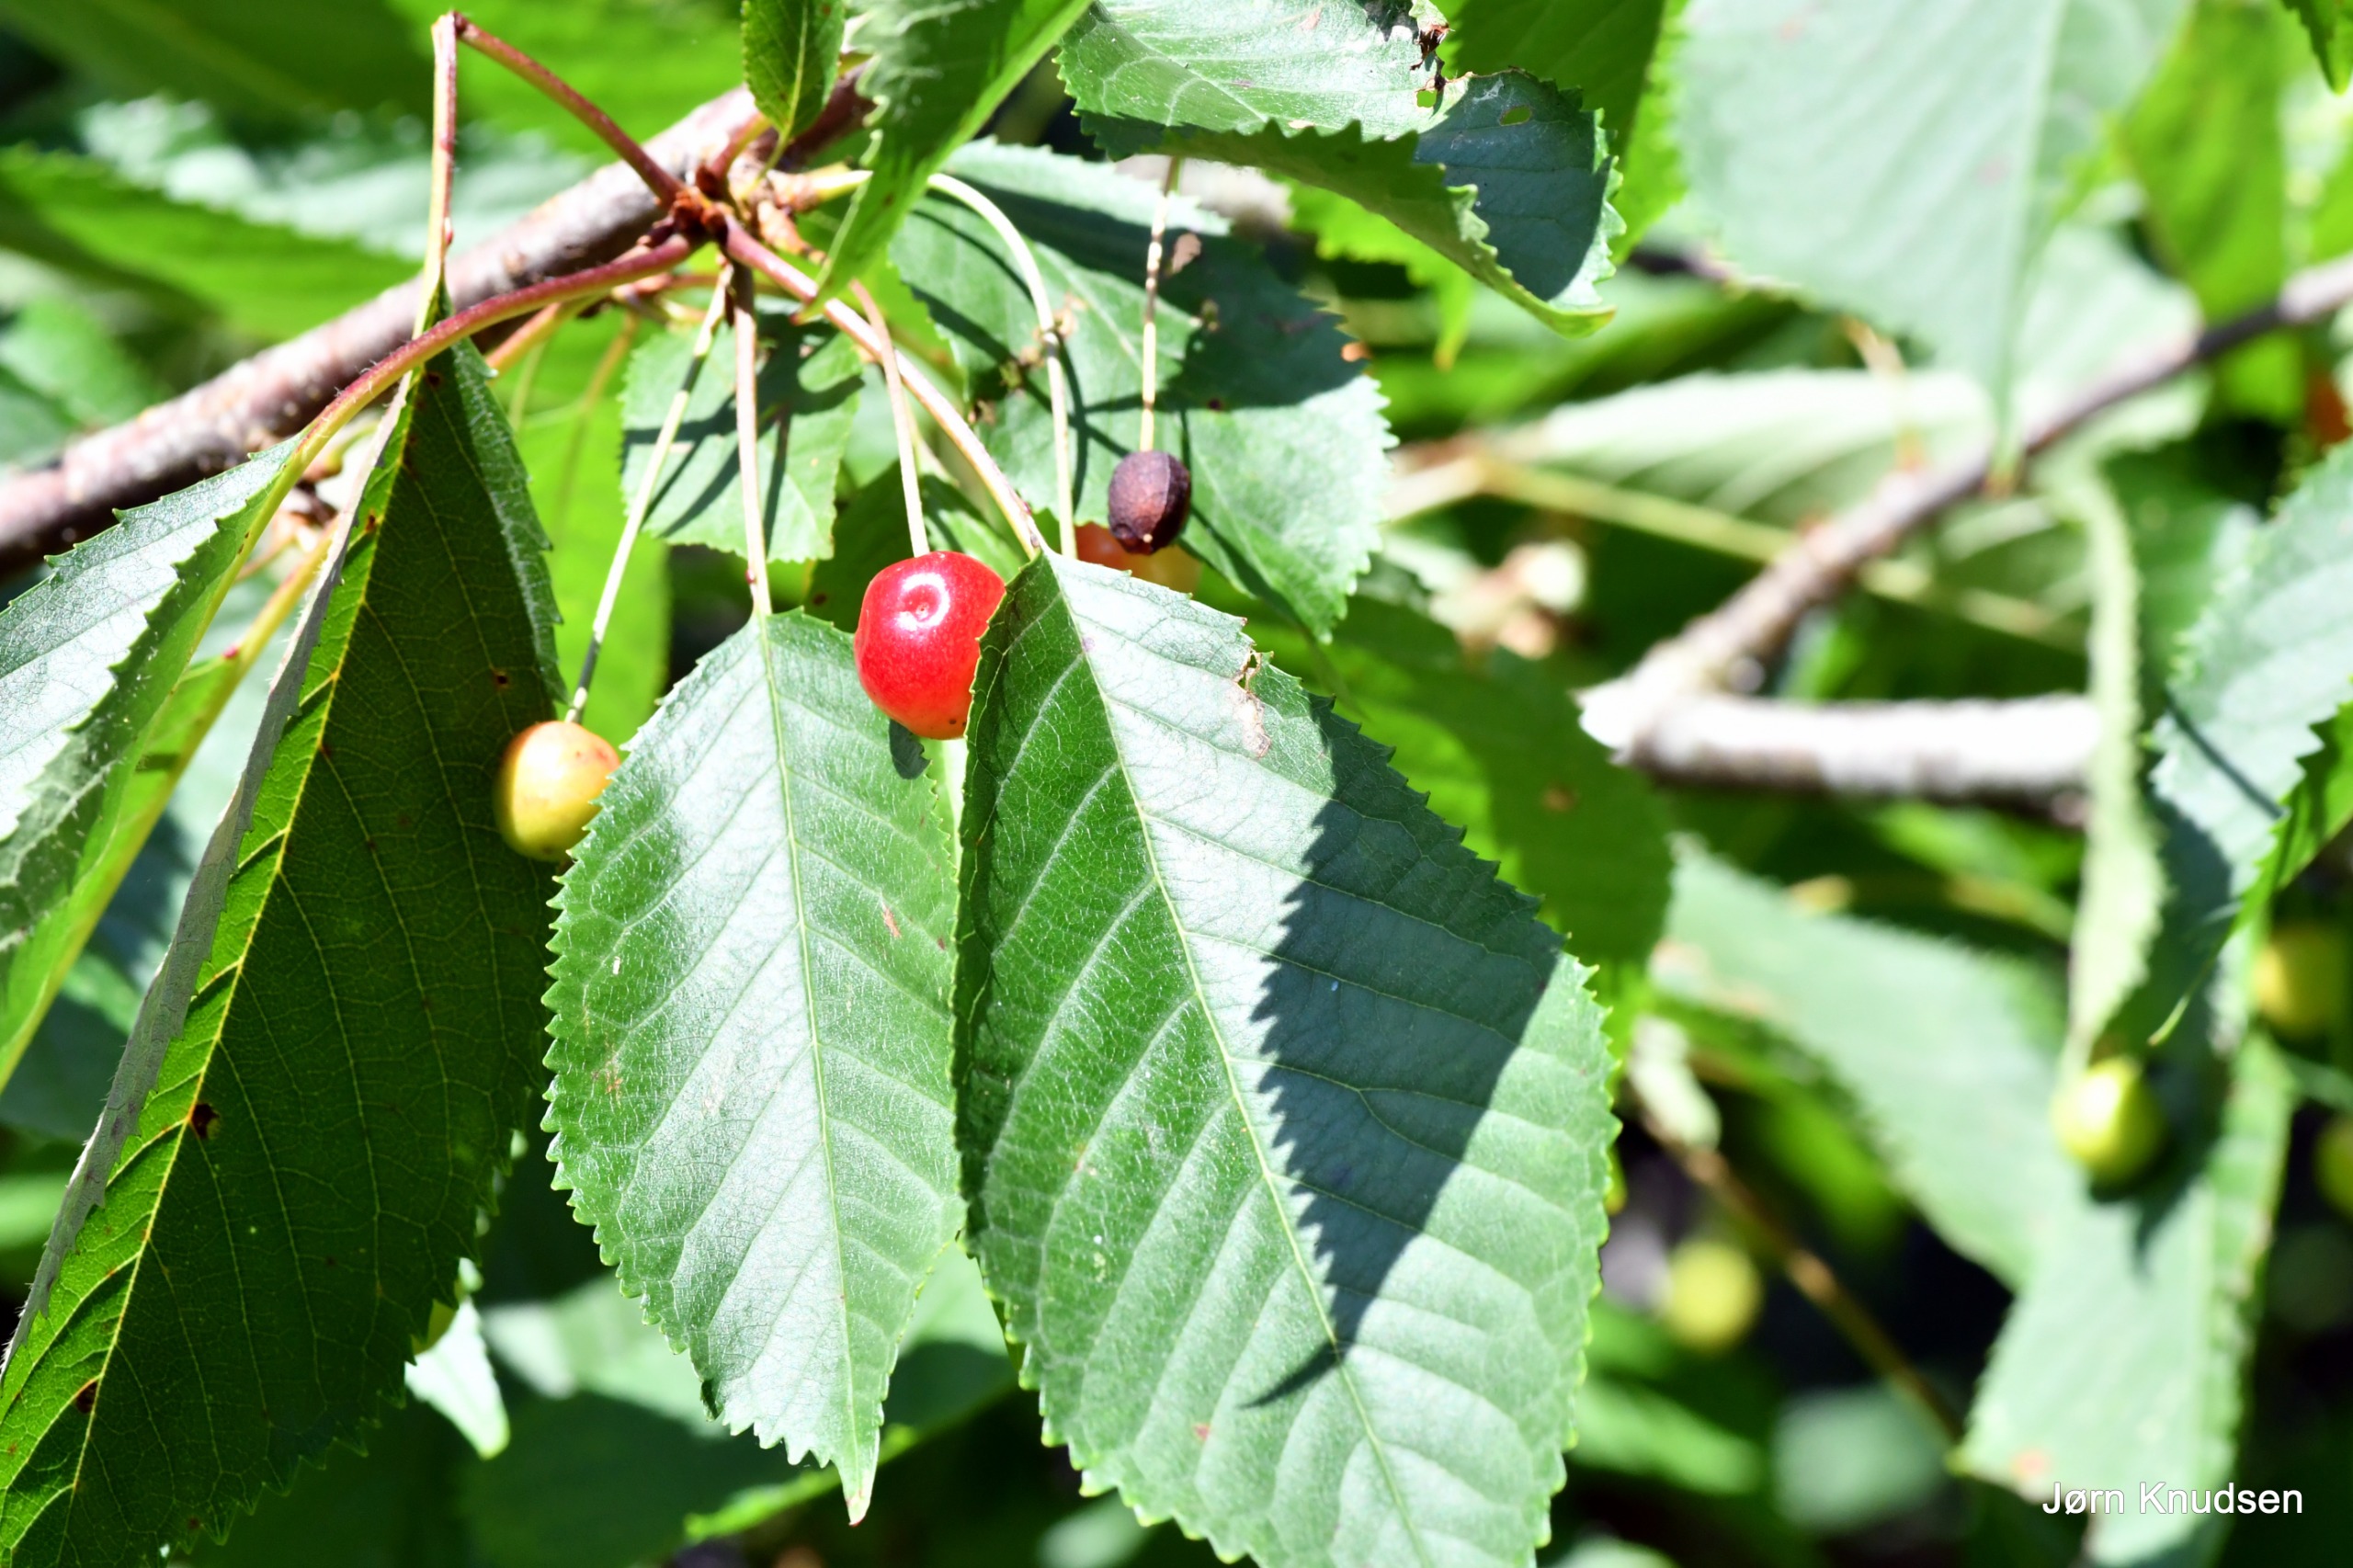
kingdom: Plantae
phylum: Tracheophyta
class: Magnoliopsida
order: Rosales
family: Rosaceae
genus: Prunus
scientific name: Prunus cerasus
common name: Sur-kirsebær
